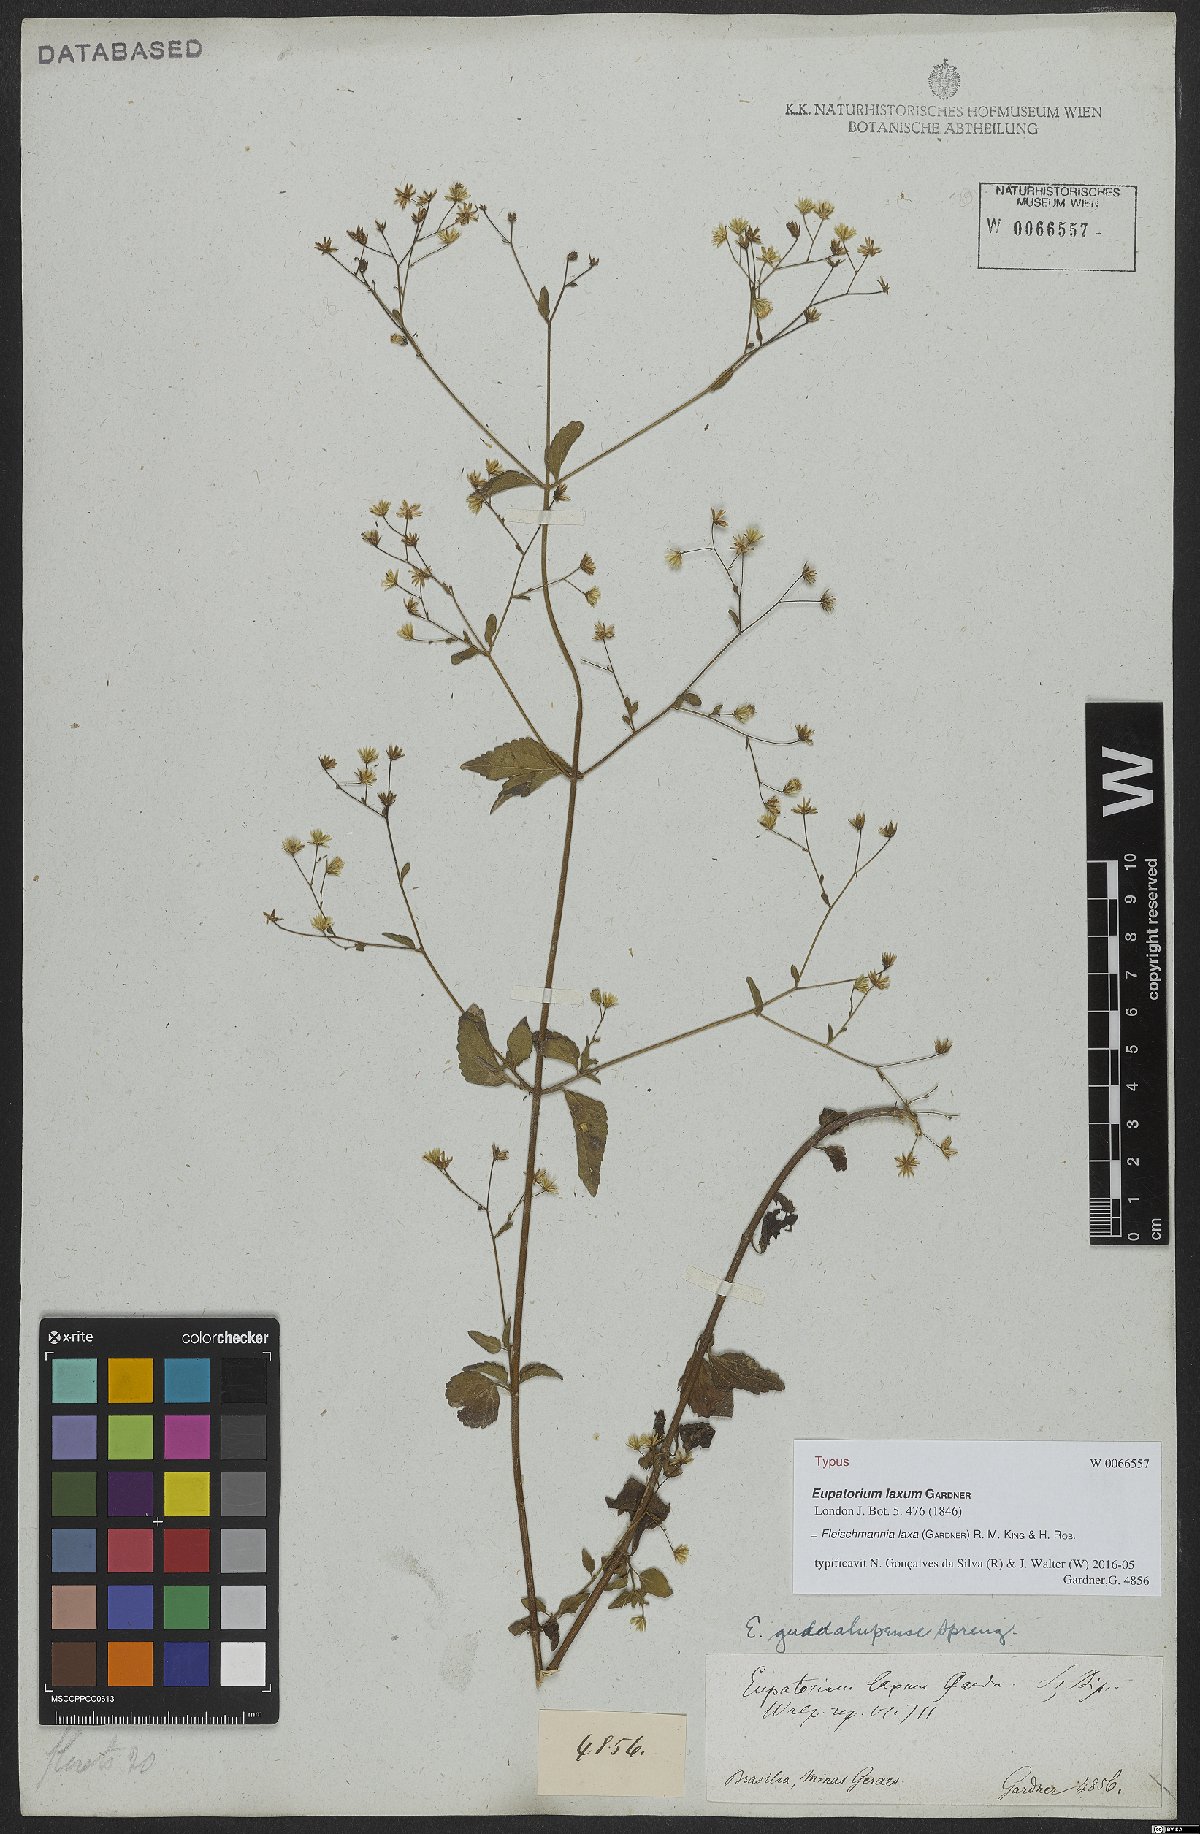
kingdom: Plantae
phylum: Tracheophyta
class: Magnoliopsida
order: Asterales
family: Asteraceae
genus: Fleischmannia
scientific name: Fleischmannia laxa
